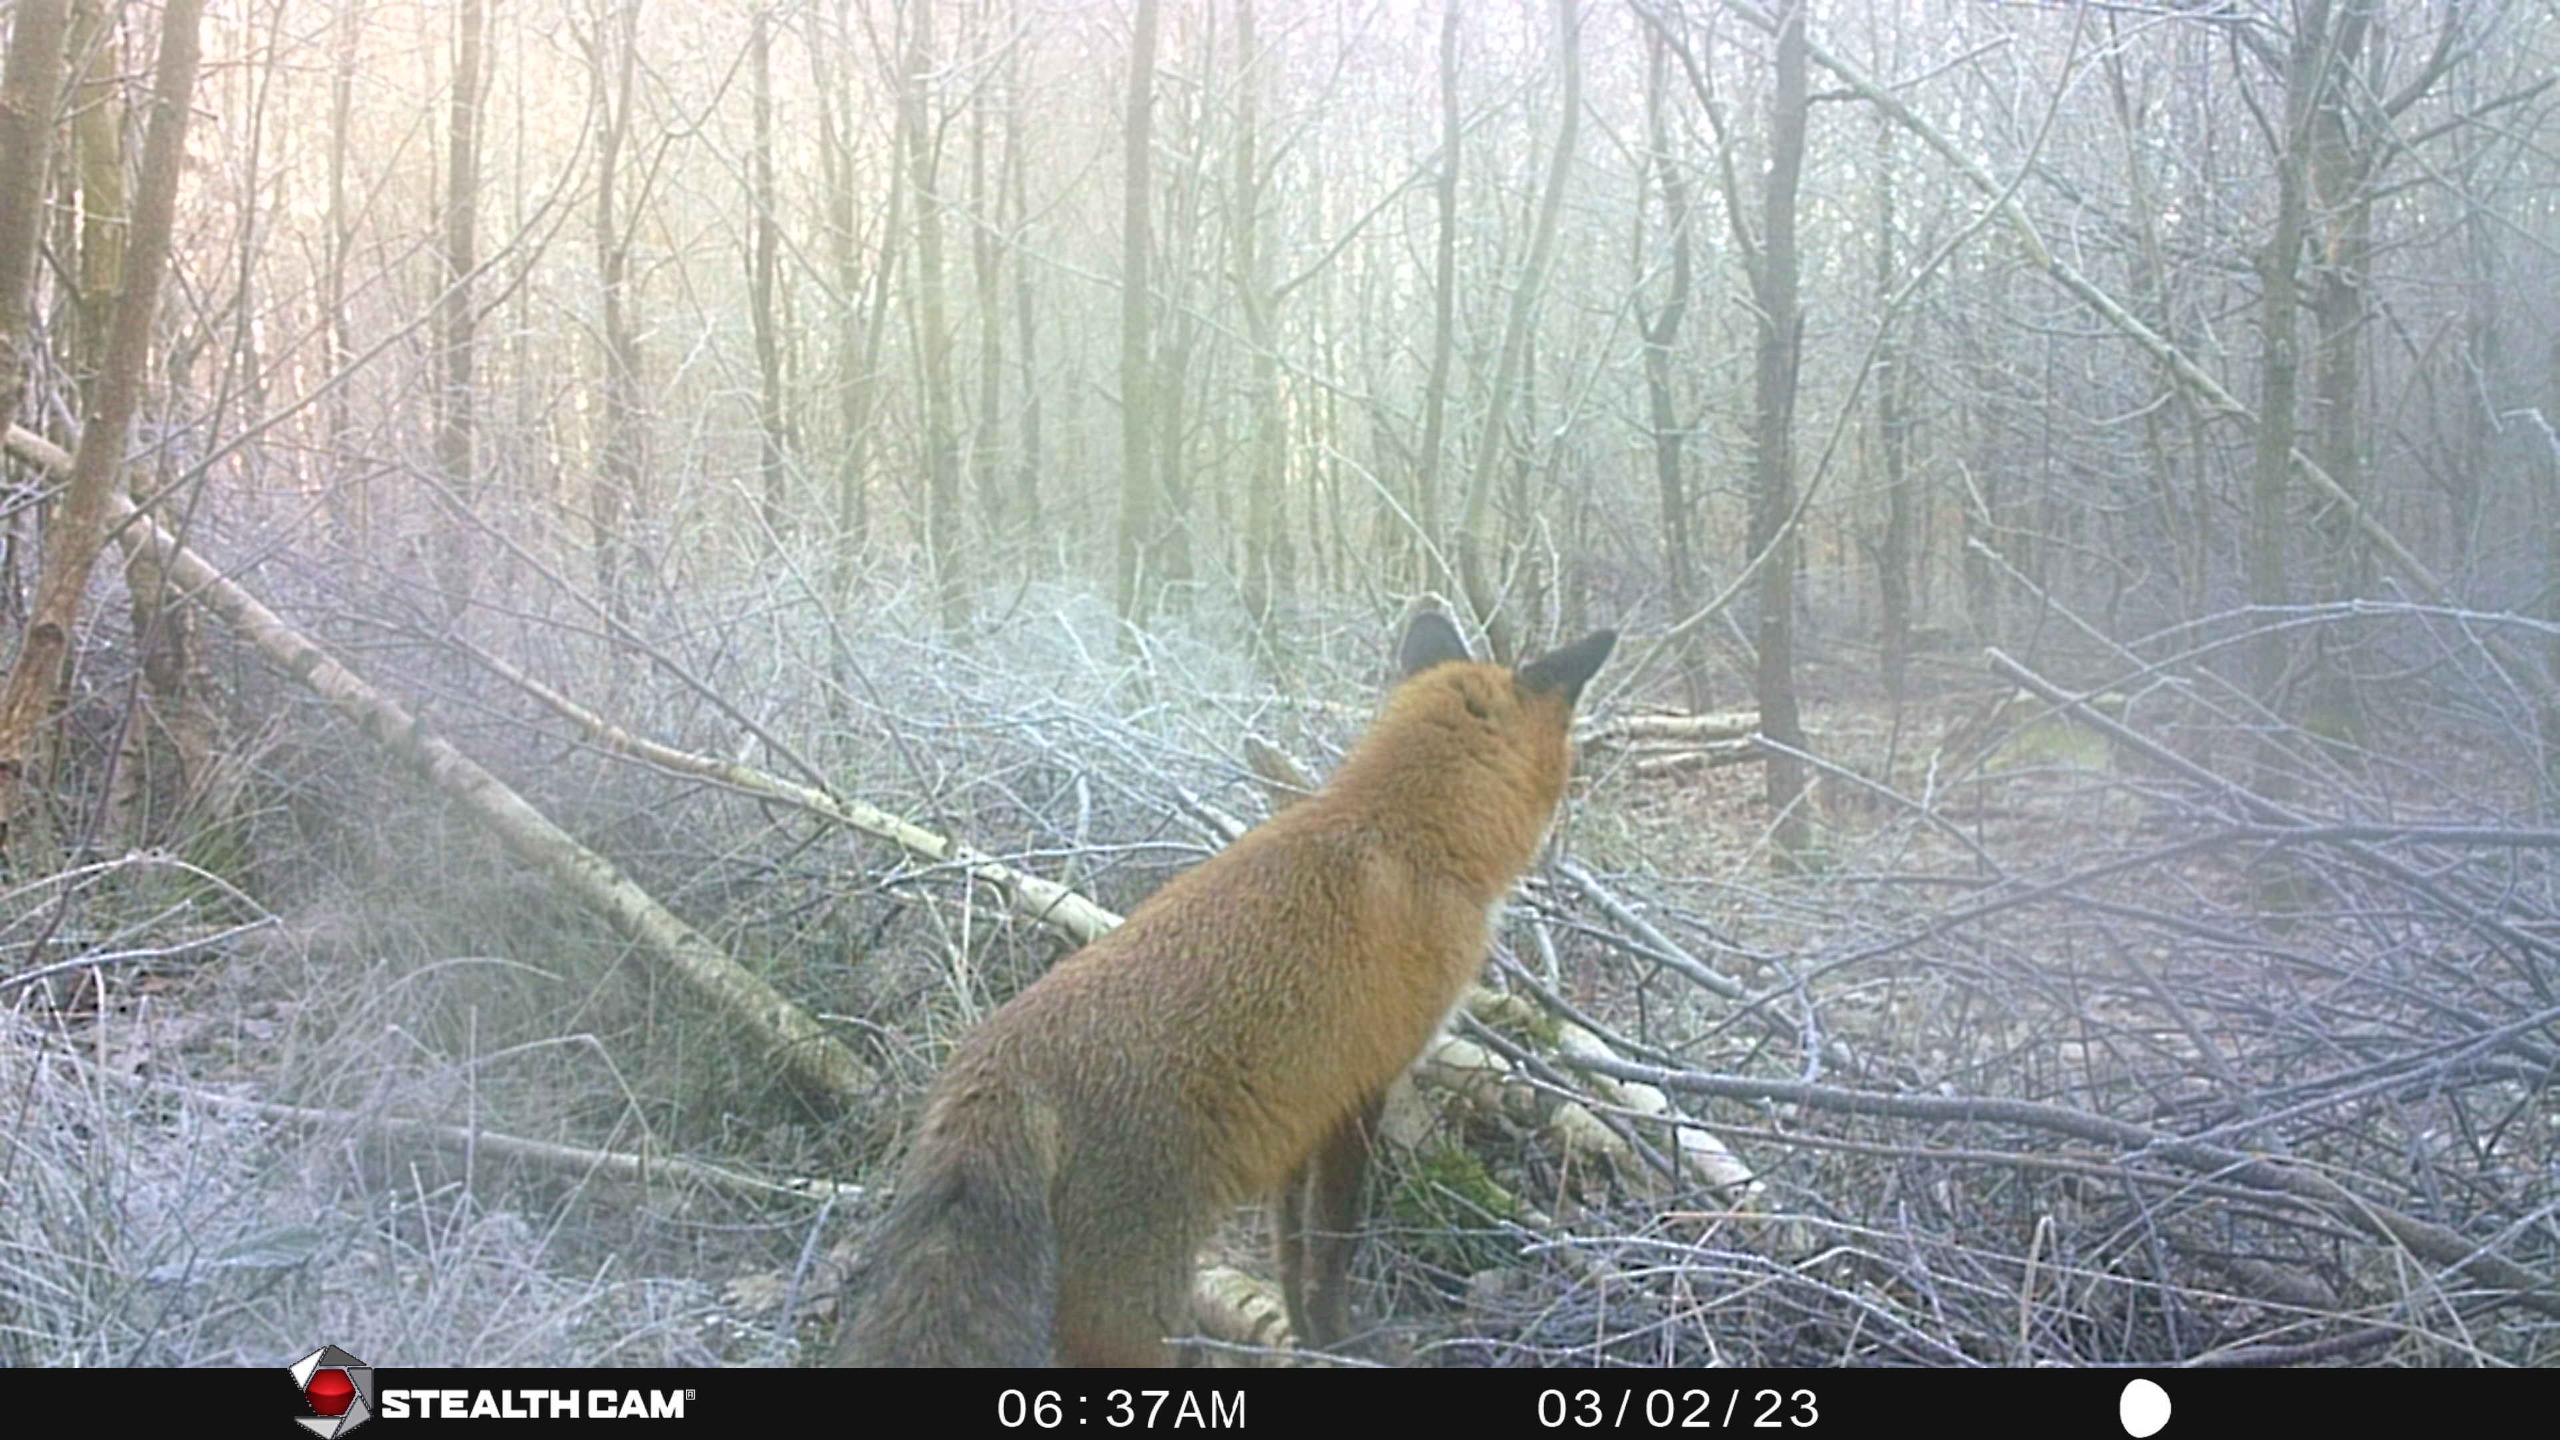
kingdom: Animalia
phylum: Chordata
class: Mammalia
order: Carnivora
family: Canidae
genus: Vulpes
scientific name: Vulpes vulpes
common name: Ræv
